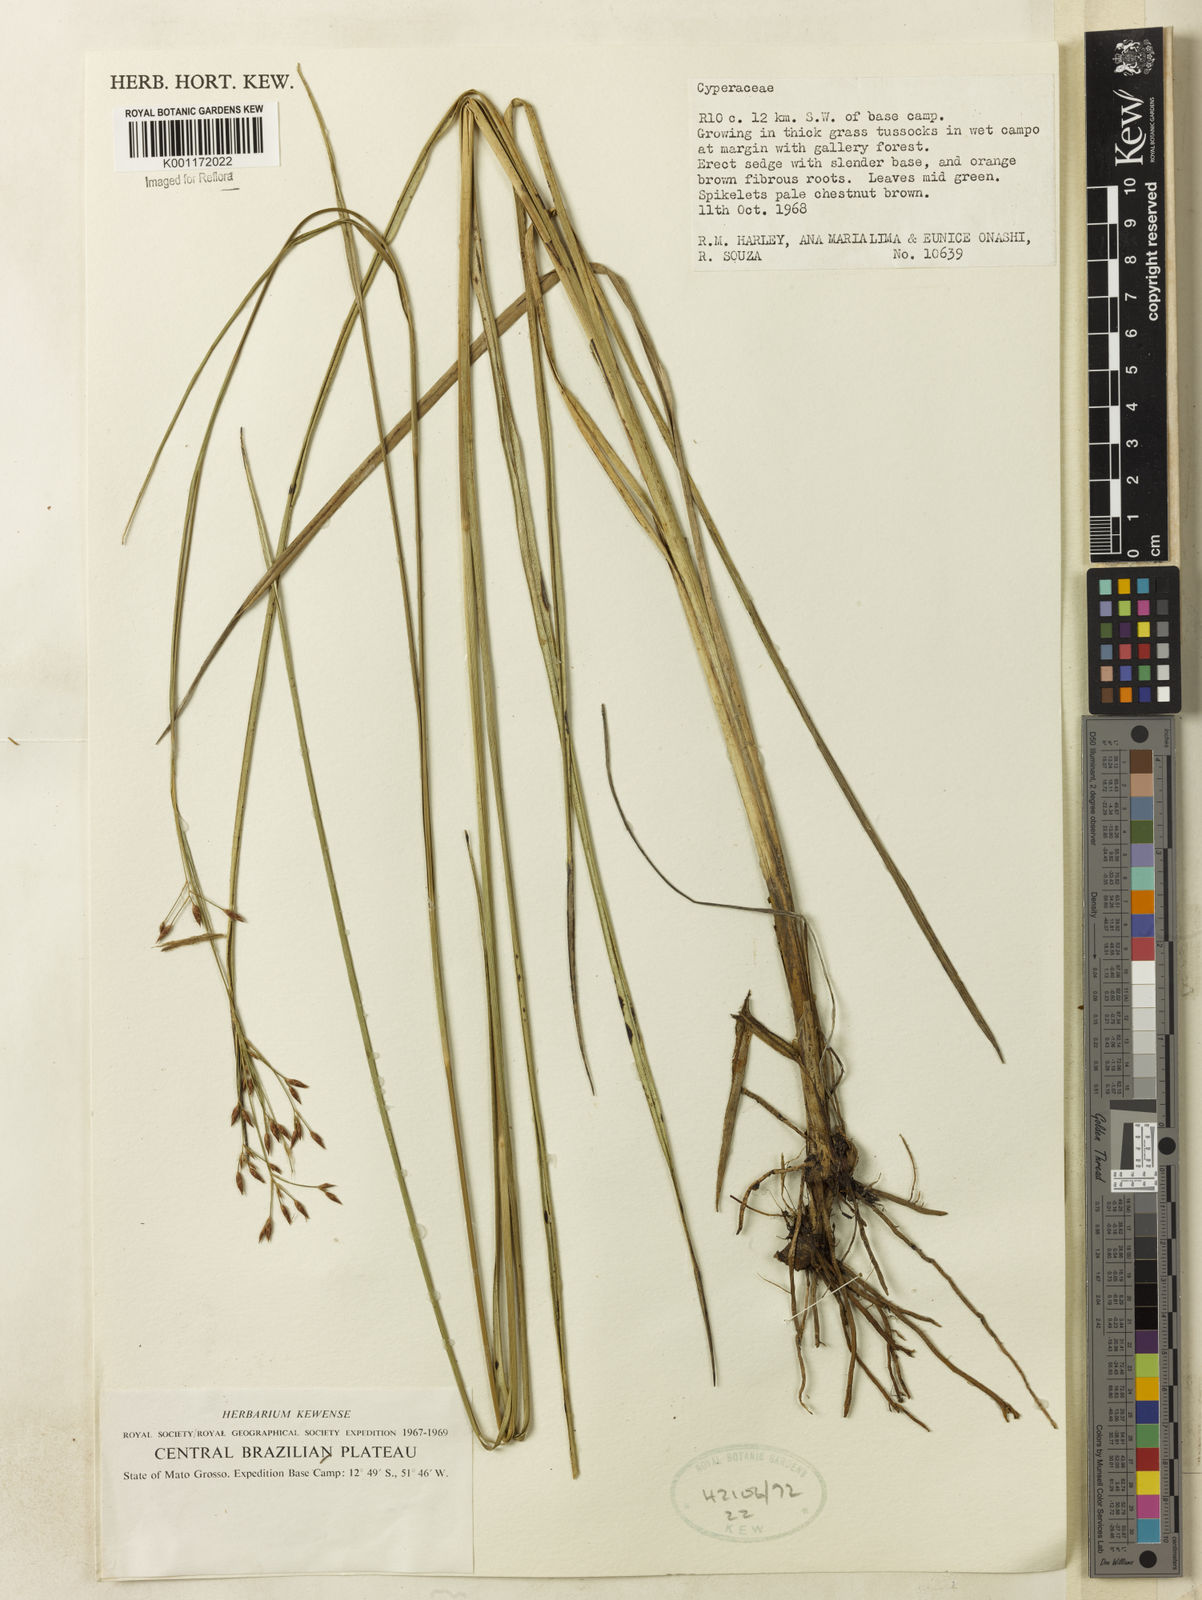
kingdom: Plantae
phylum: Tracheophyta
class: Liliopsida
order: Poales
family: Cyperaceae
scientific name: Cyperaceae
